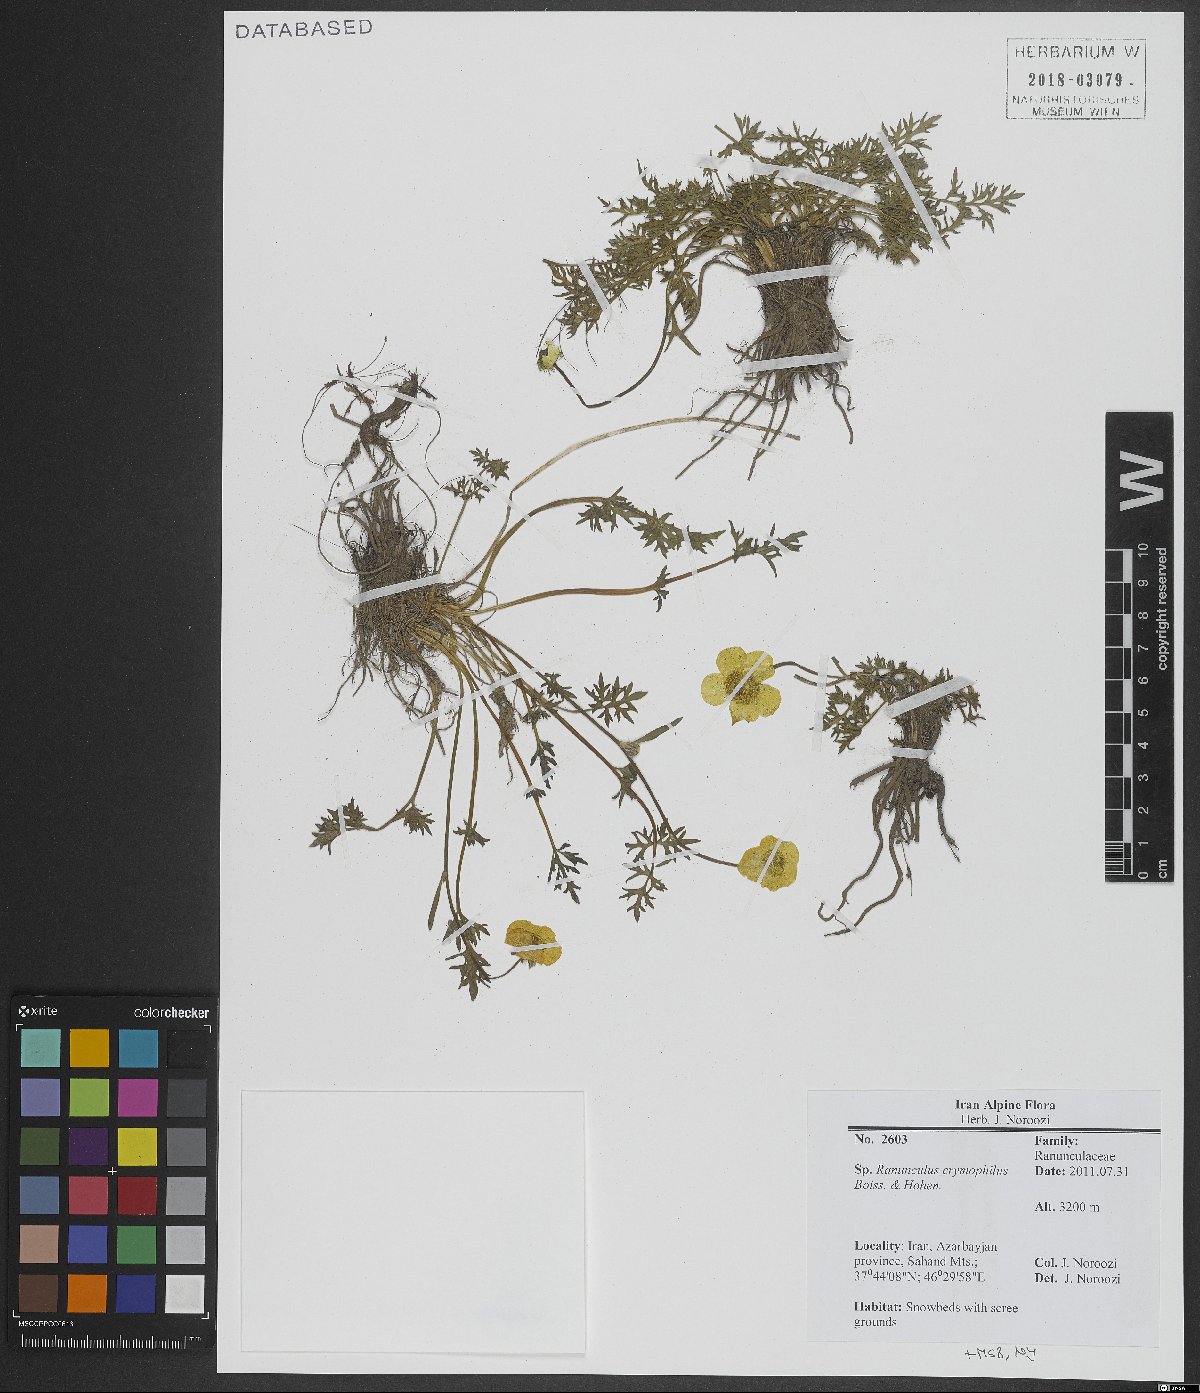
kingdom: Plantae
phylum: Tracheophyta
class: Magnoliopsida
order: Ranunculales
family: Ranunculaceae
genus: Ranunculus
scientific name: Ranunculus crymophilus
